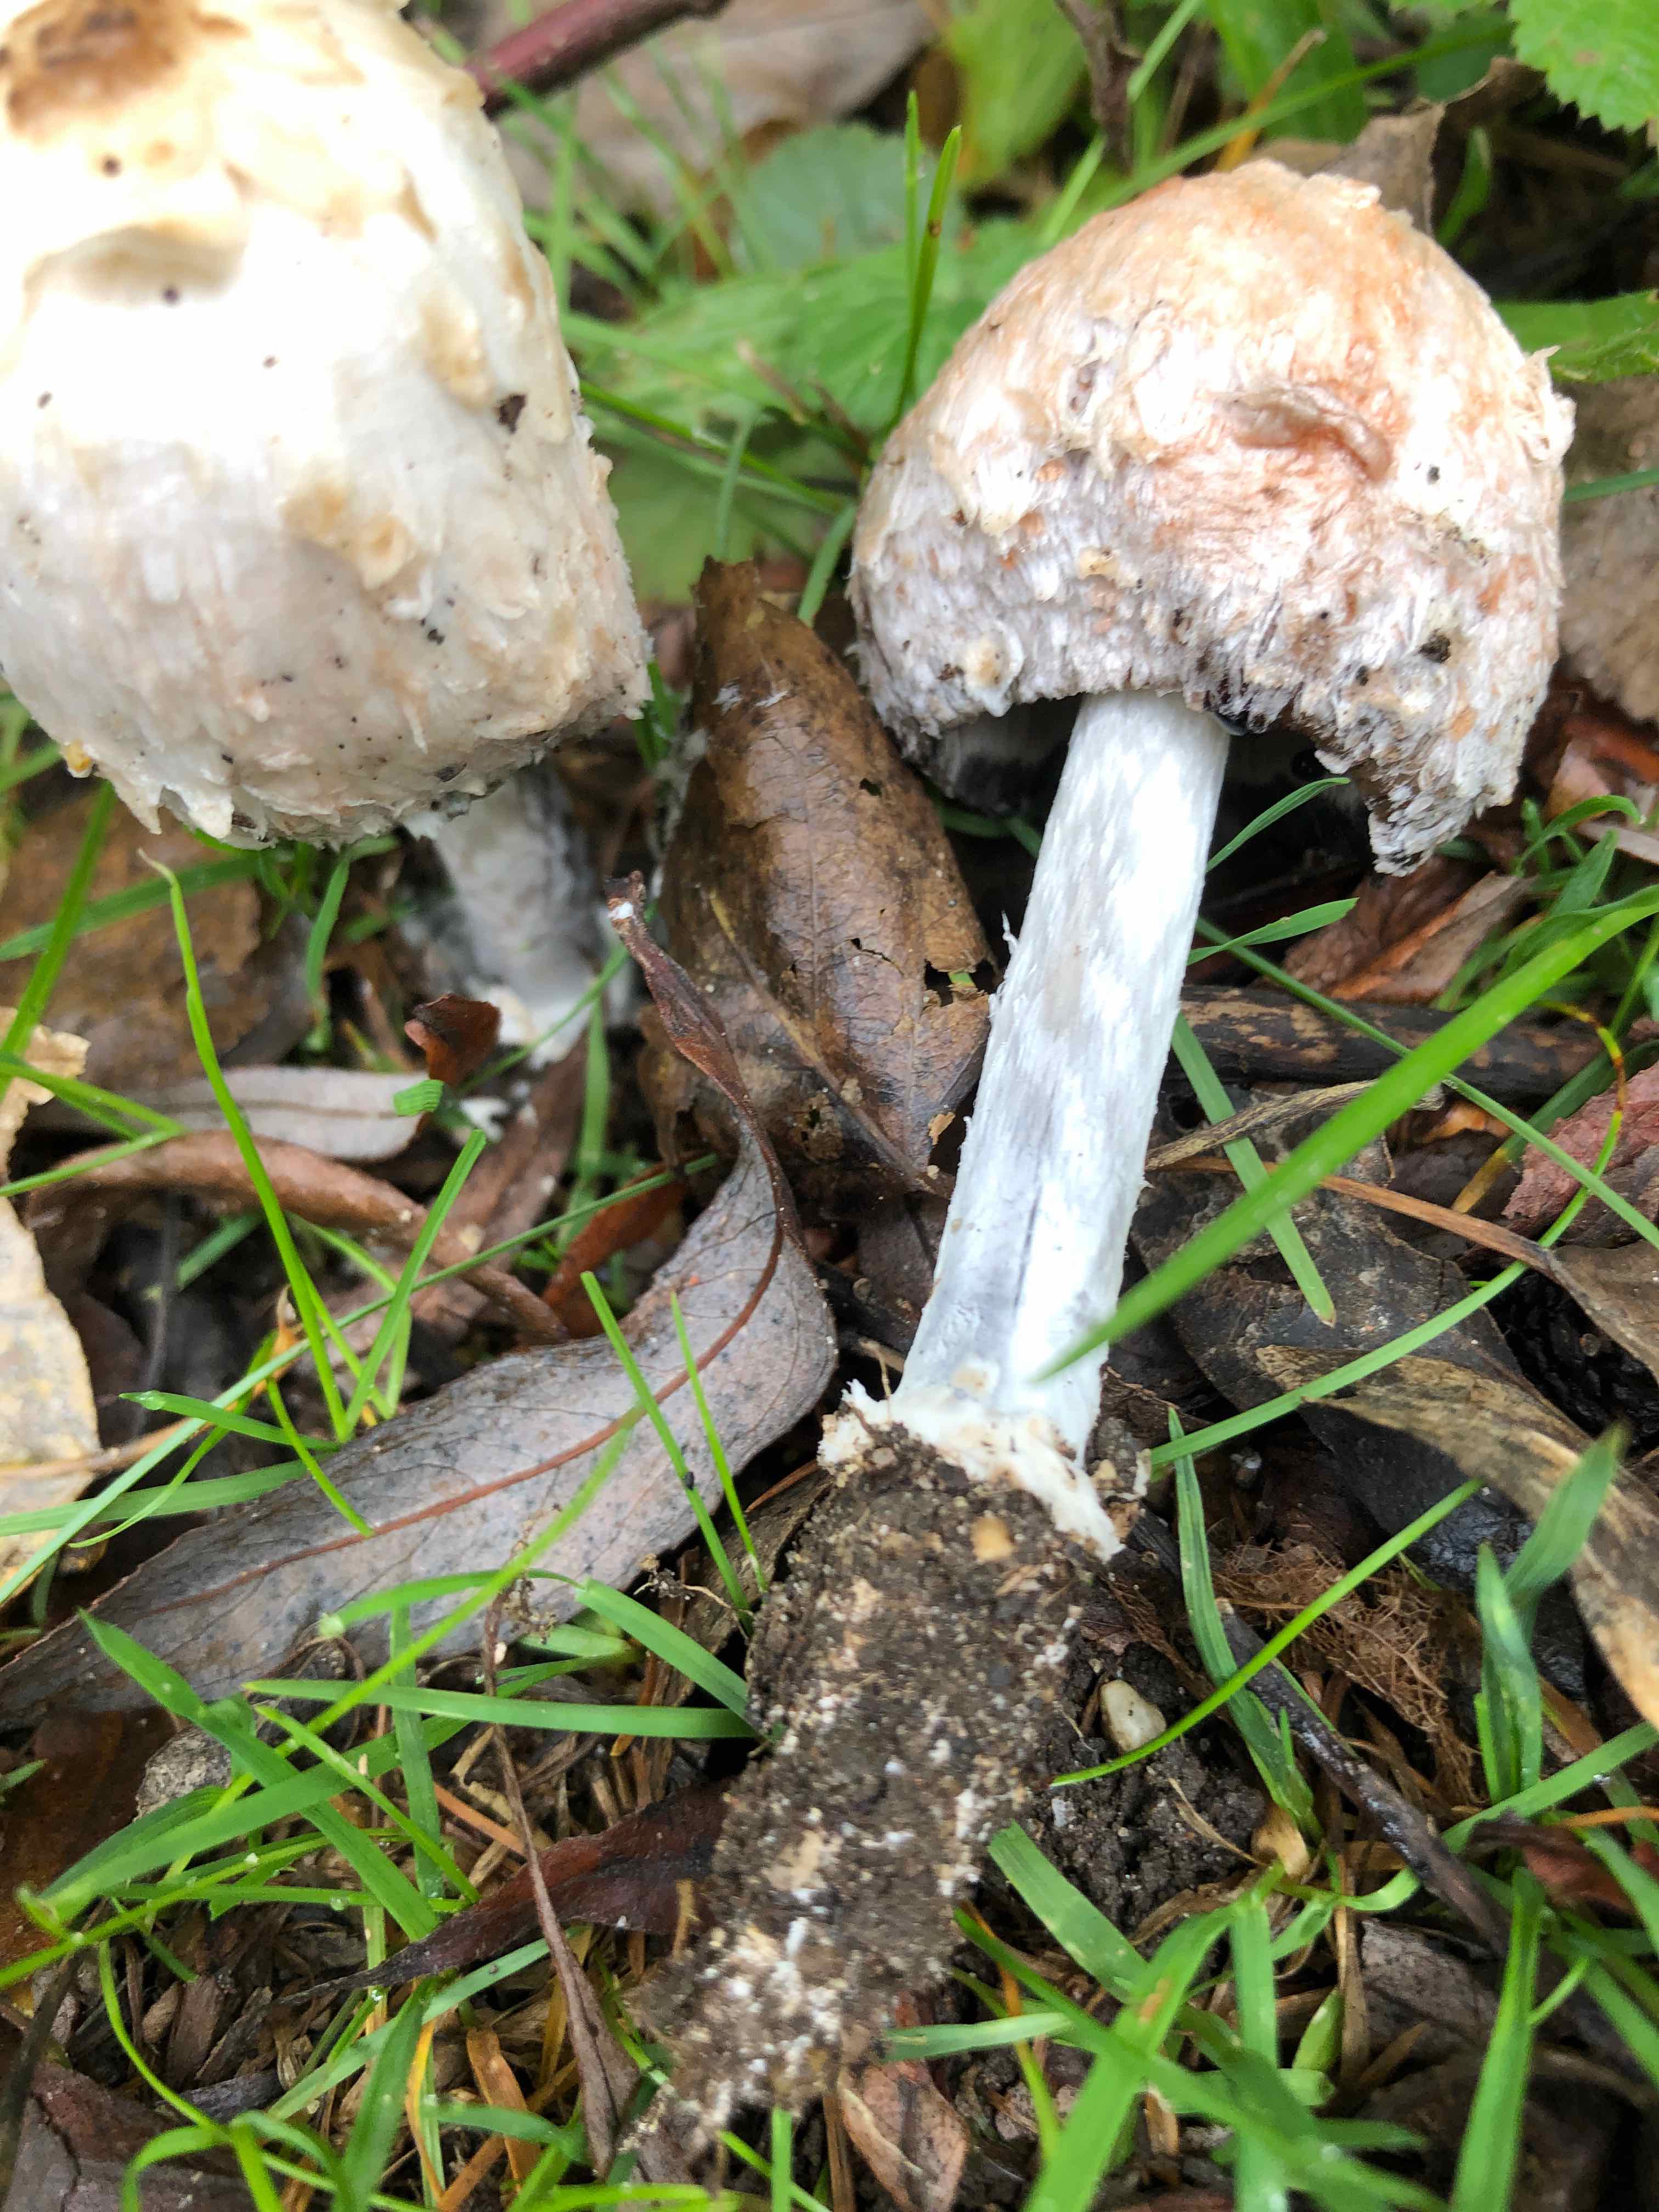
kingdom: Fungi
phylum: Basidiomycota
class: Agaricomycetes
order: Agaricales
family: Agaricaceae
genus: Coprinus
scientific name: Coprinus comatus
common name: stor parykhat
